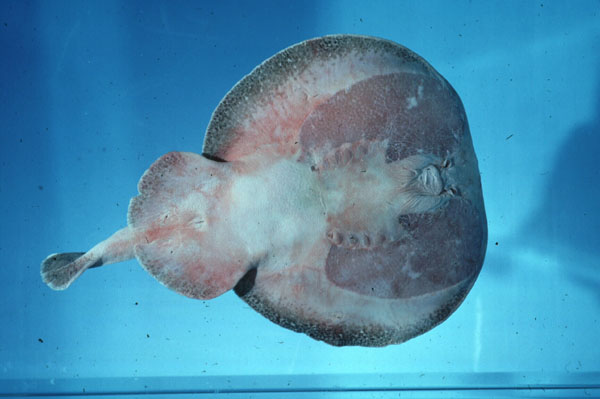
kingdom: Animalia
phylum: Chordata
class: Elasmobranchii
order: Torpediniformes
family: Torpedinidae
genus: Torpedo
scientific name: Torpedo fuscomaculata
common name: Blackspotted electric ray
